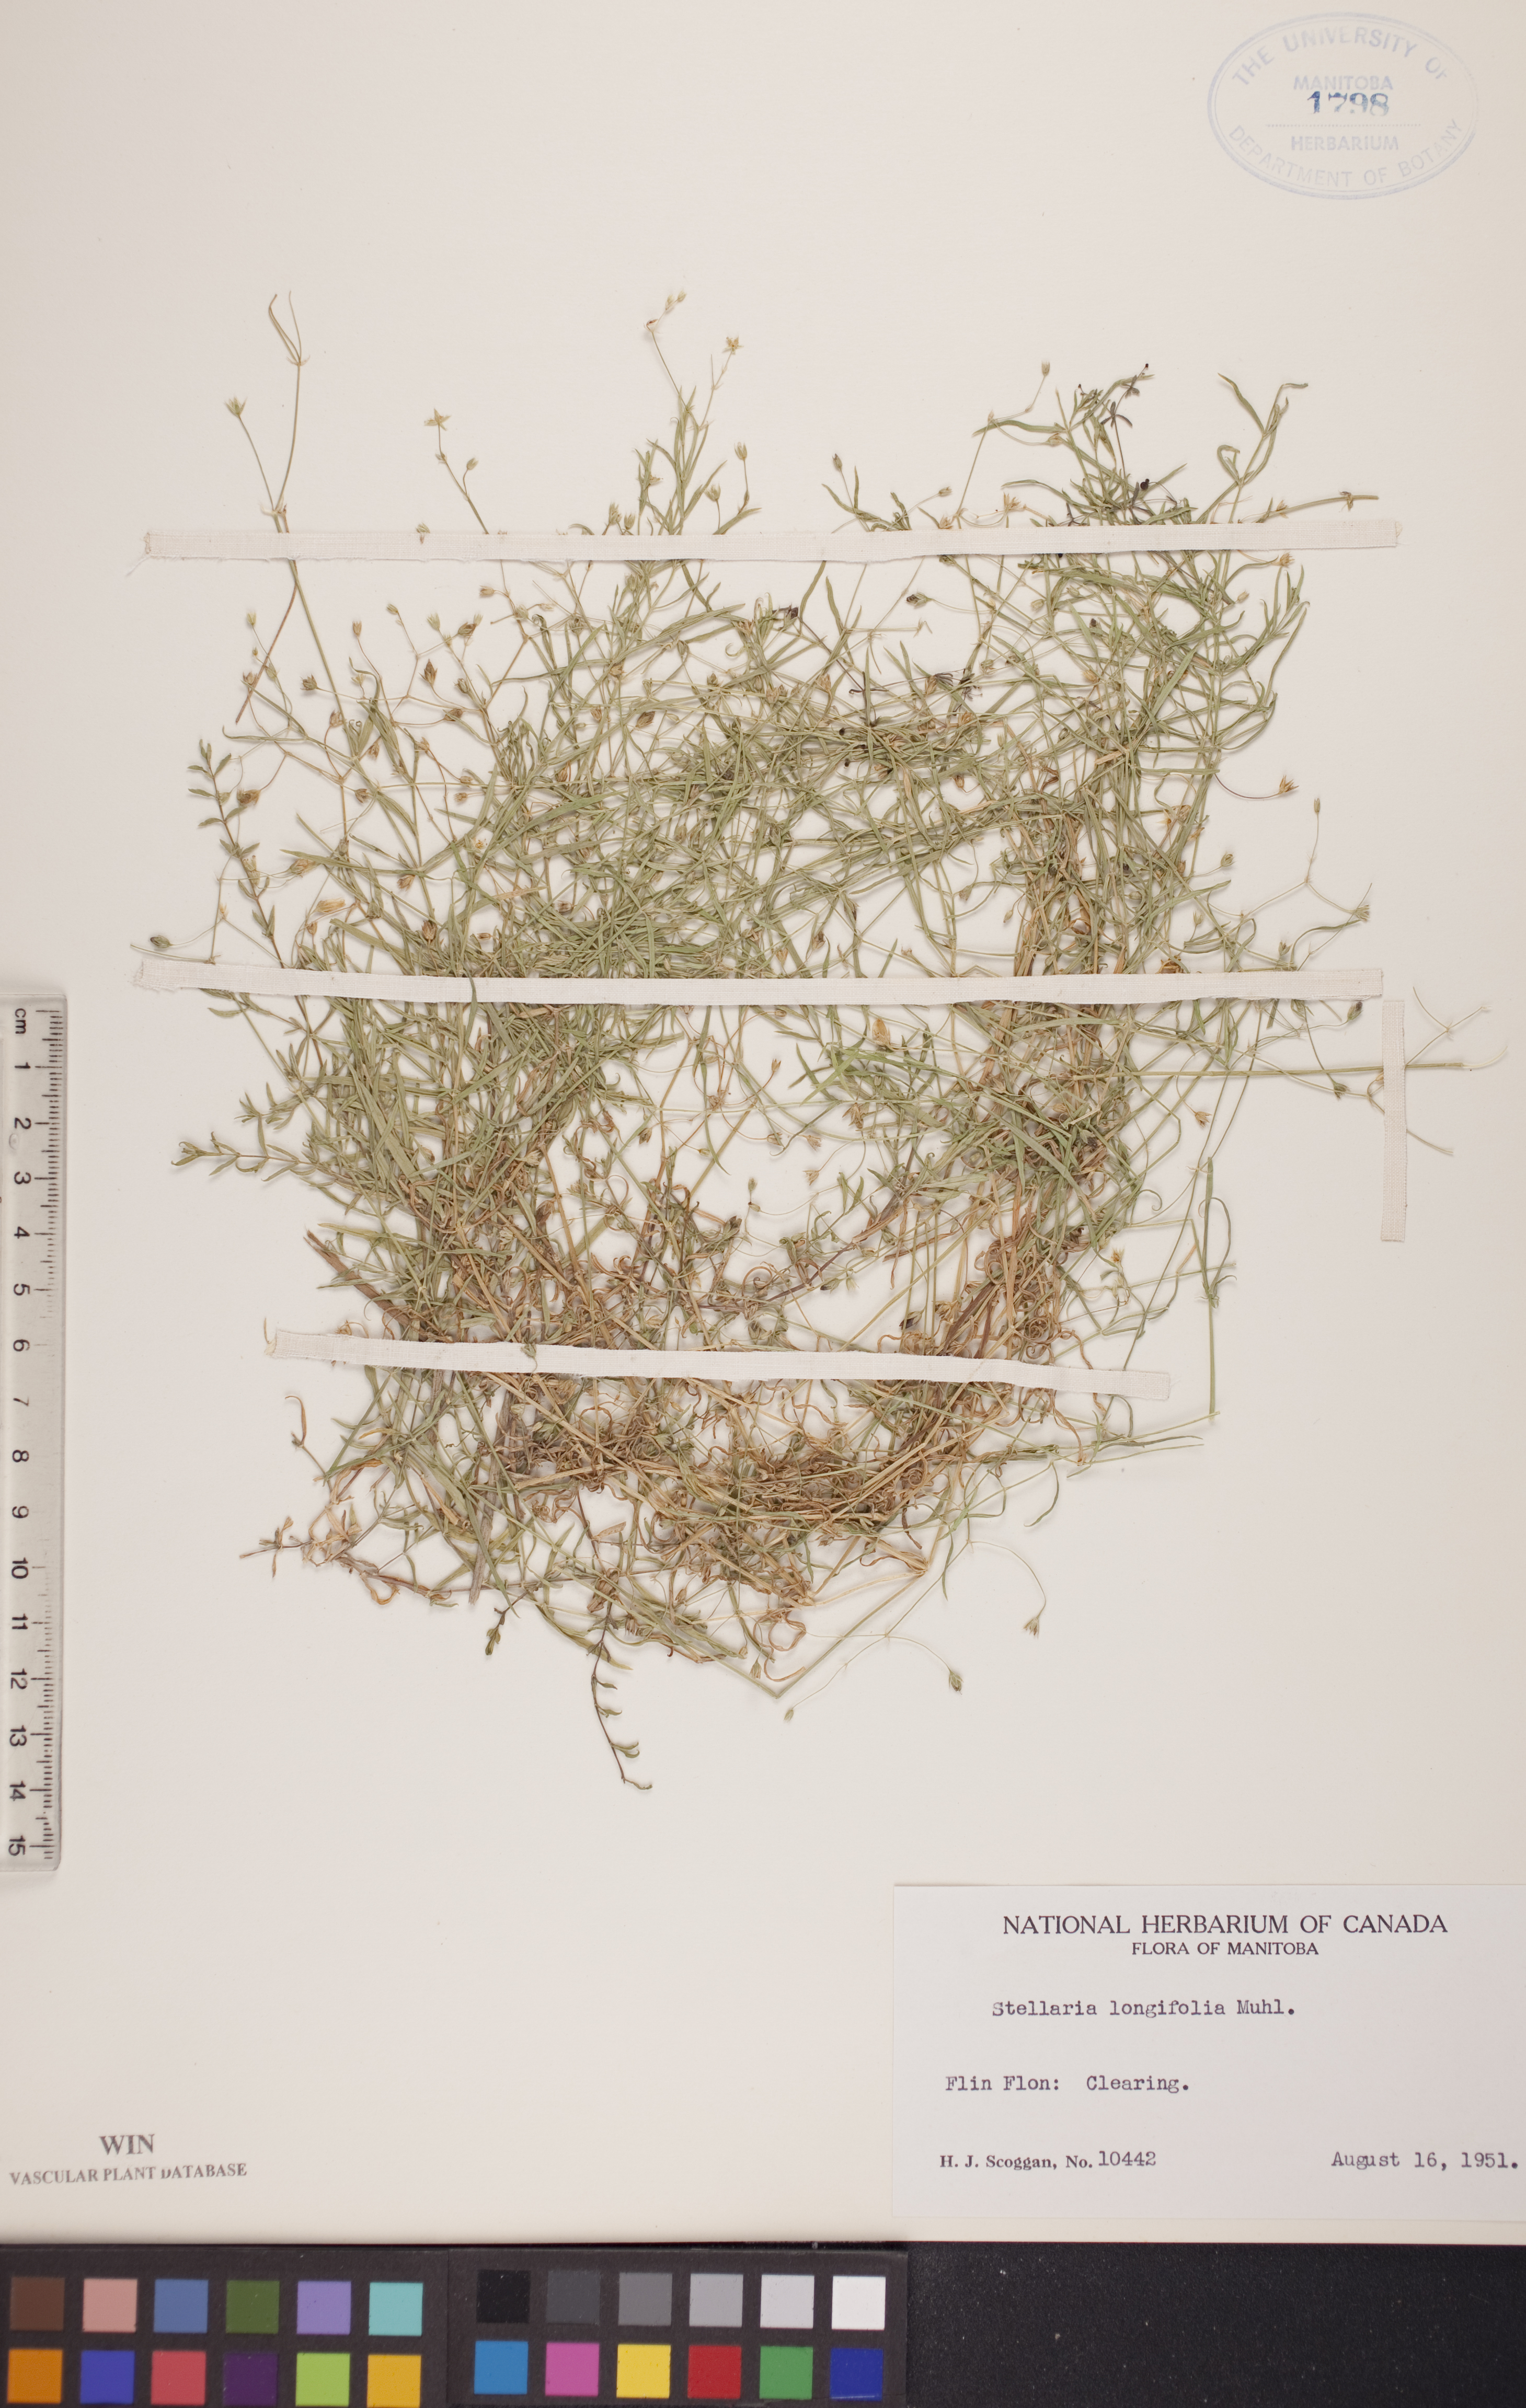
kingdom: Plantae
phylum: Tracheophyta
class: Magnoliopsida
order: Caryophyllales
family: Caryophyllaceae
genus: Stellaria
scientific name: Stellaria longifolia
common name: Long-leaved chickweed
